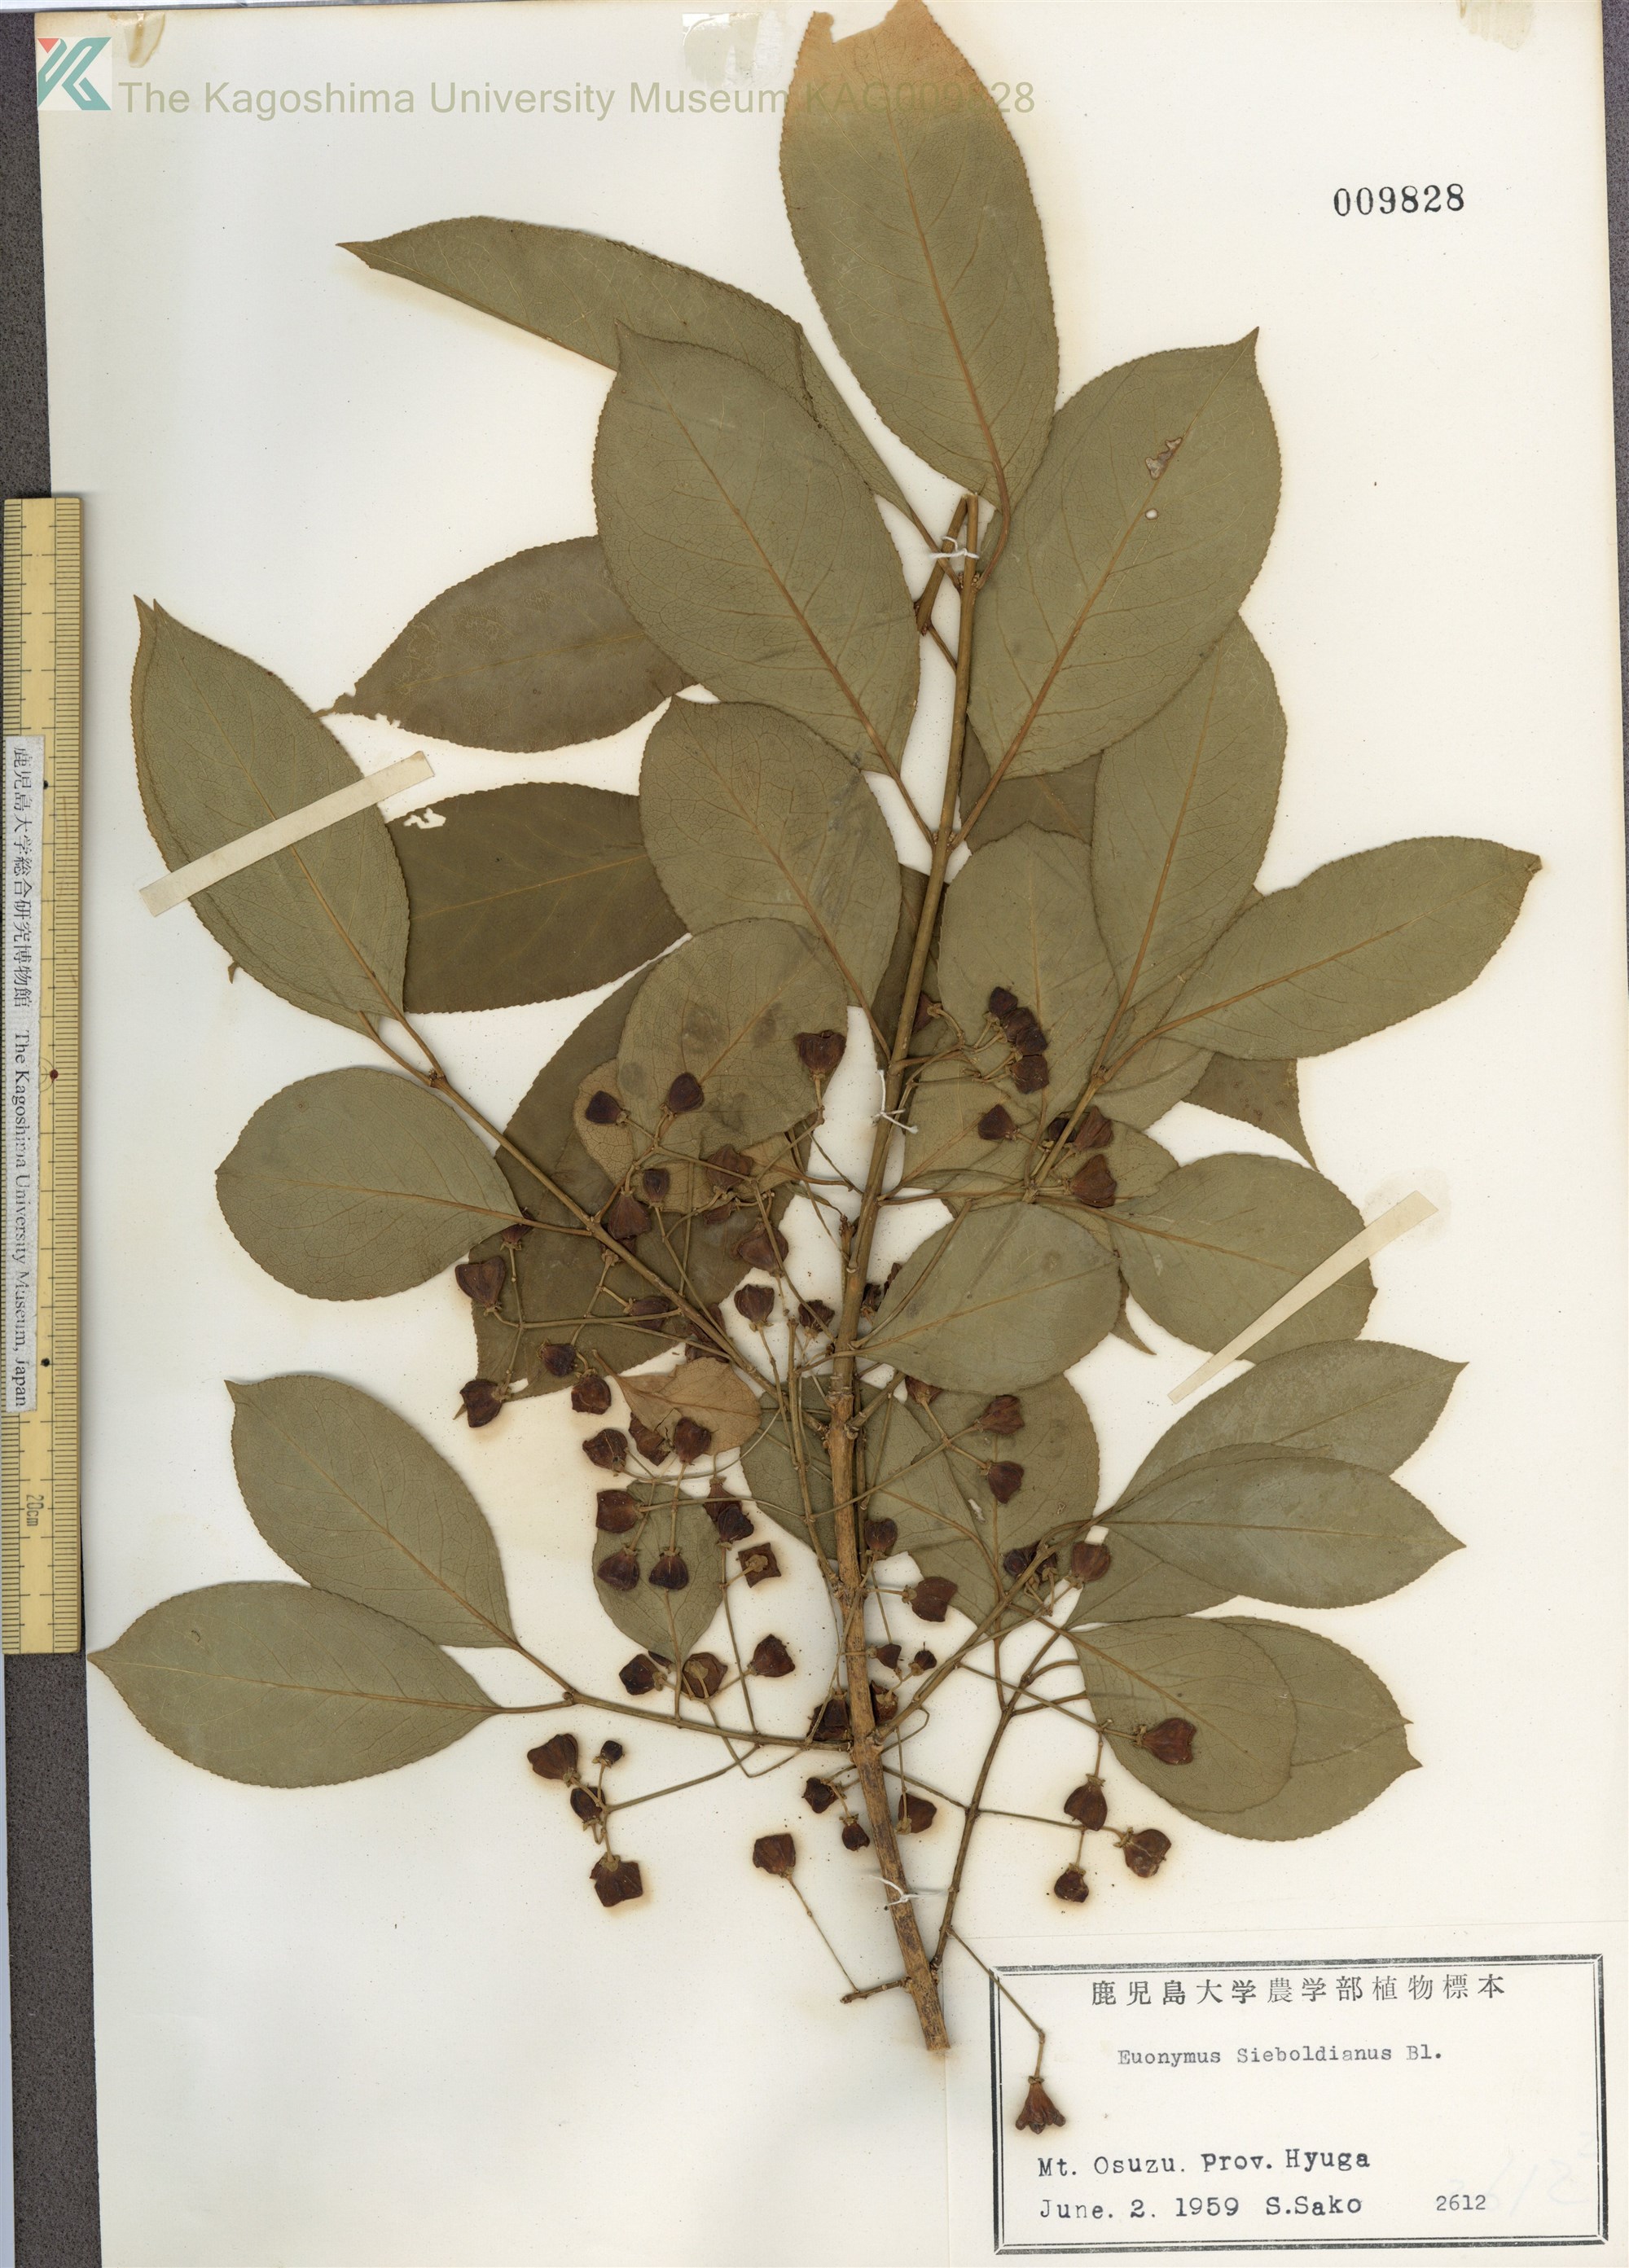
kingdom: Plantae
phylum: Tracheophyta
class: Magnoliopsida
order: Celastrales
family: Celastraceae
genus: Euonymus
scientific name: Euonymus hamiltonianus
